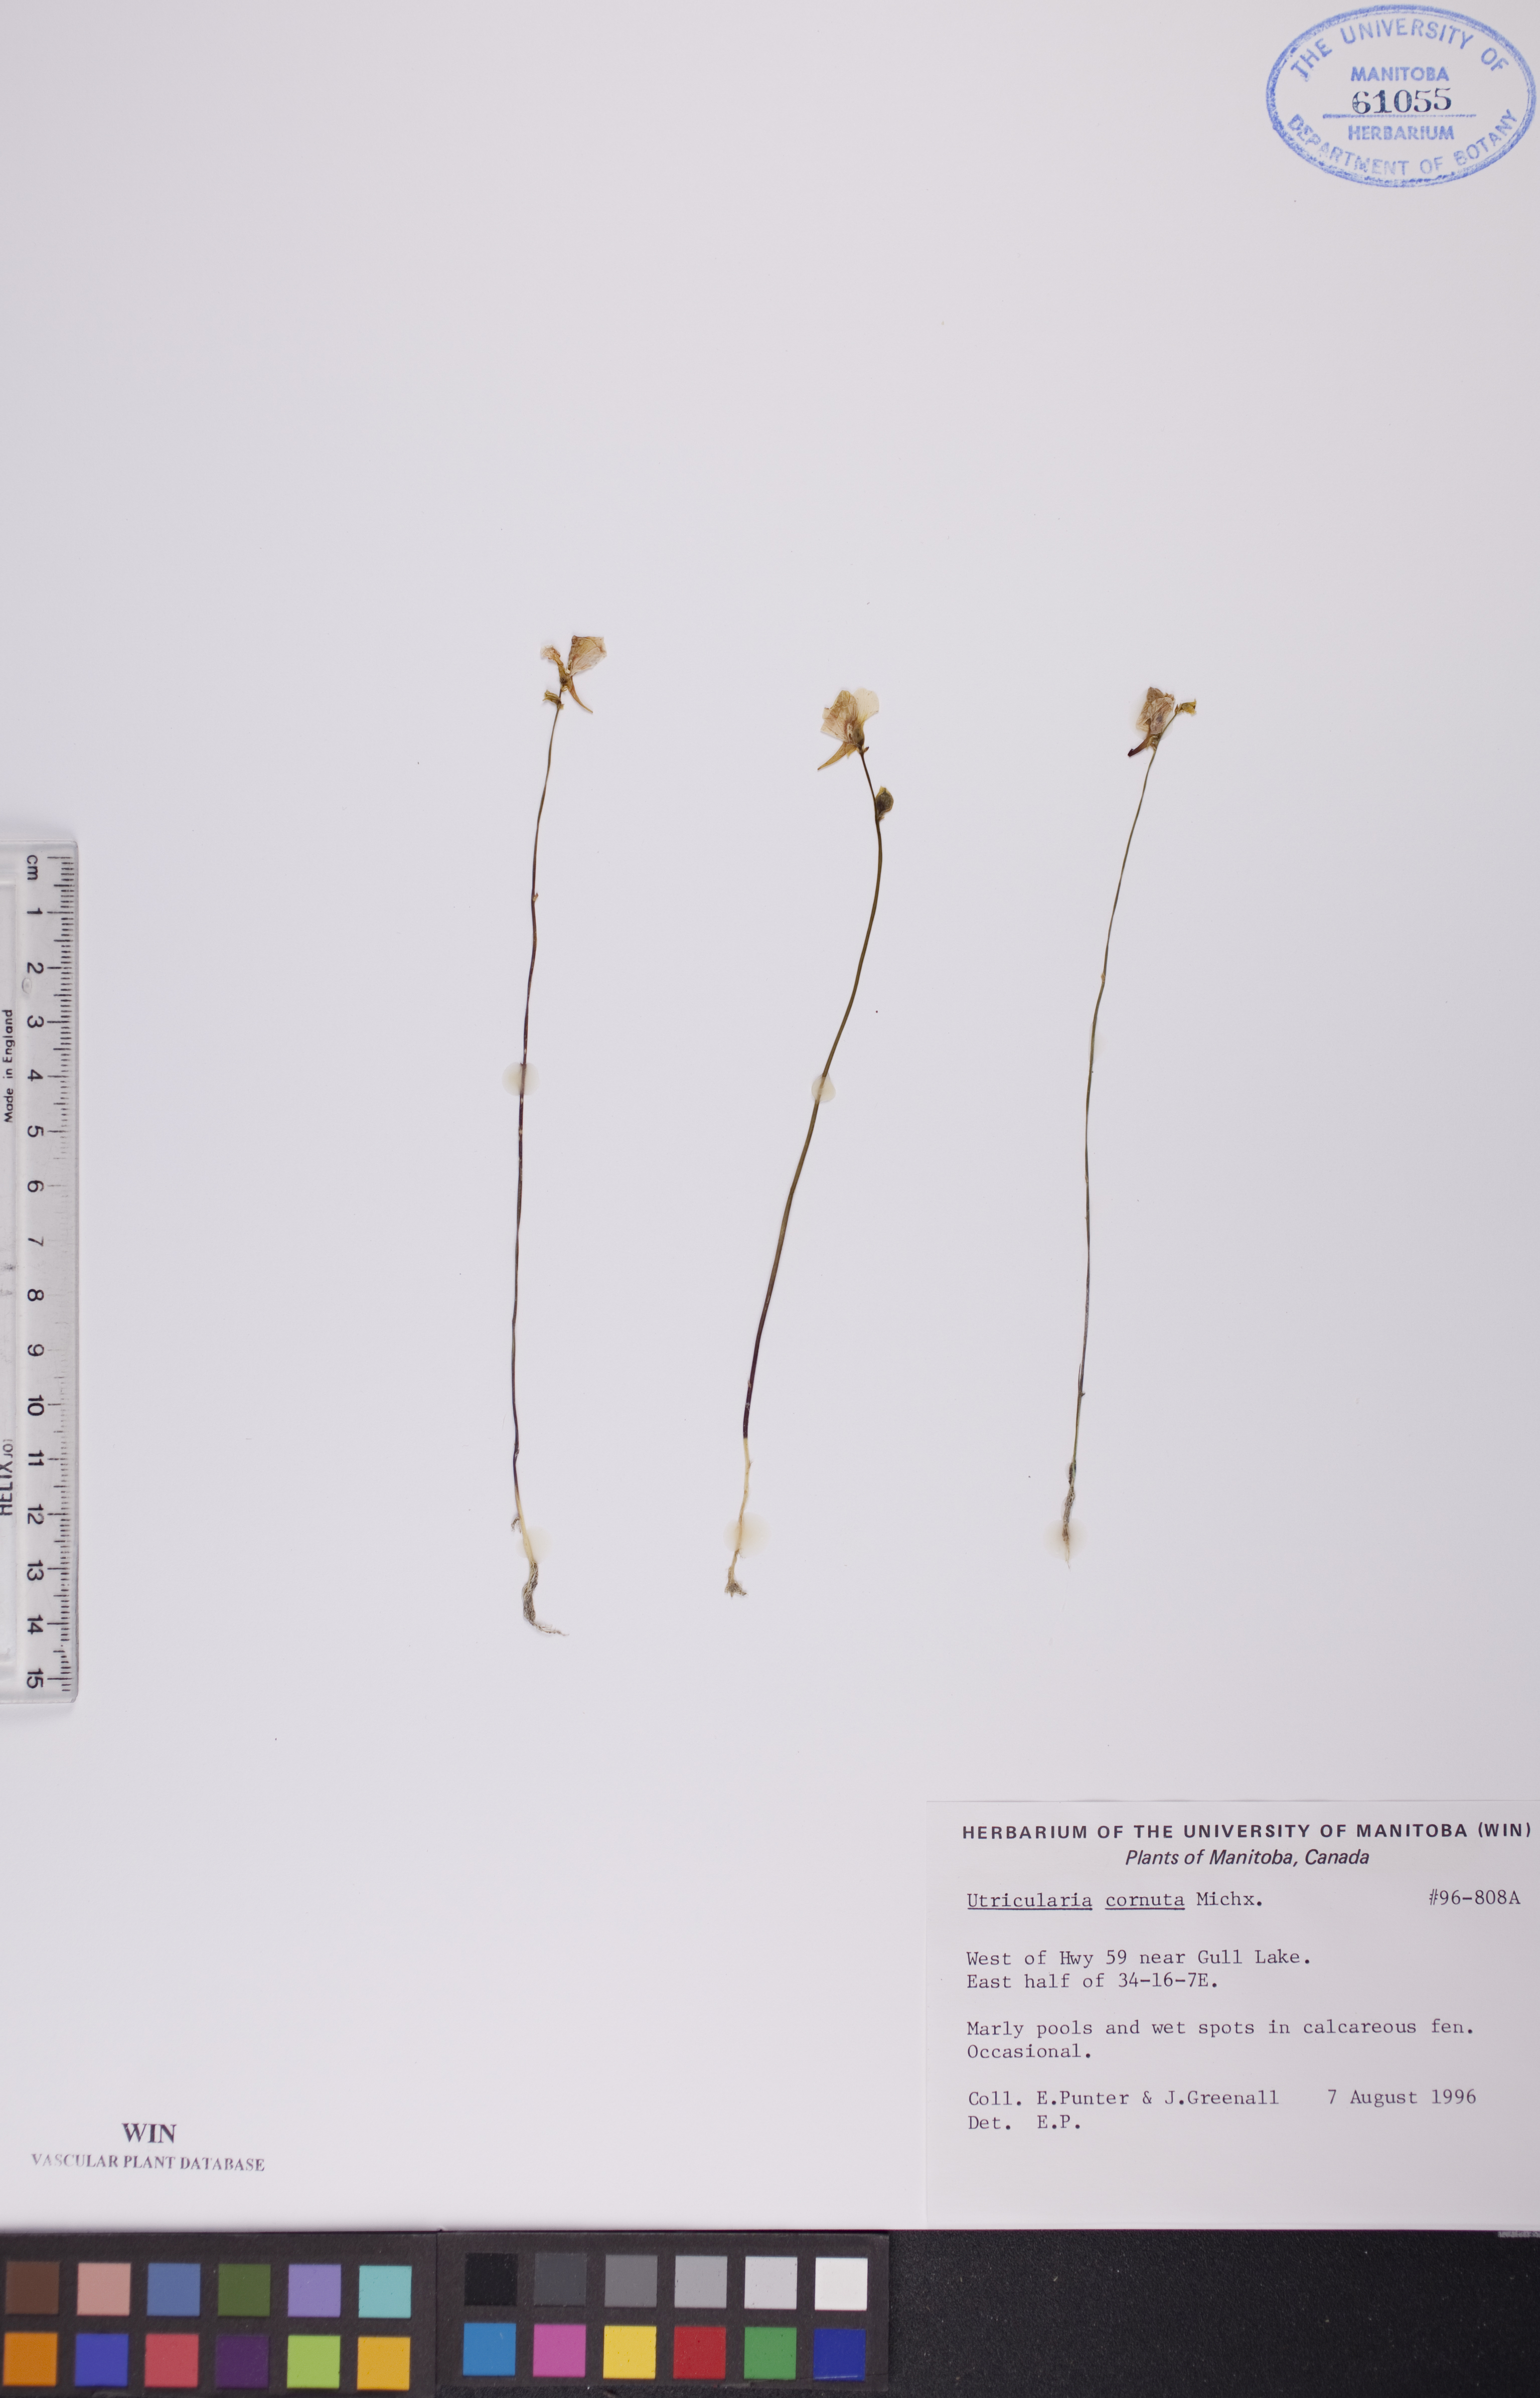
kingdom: Plantae
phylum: Tracheophyta
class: Magnoliopsida
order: Lamiales
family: Lentibulariaceae
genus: Utricularia
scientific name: Utricularia cornuta
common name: Horned bladderwort
